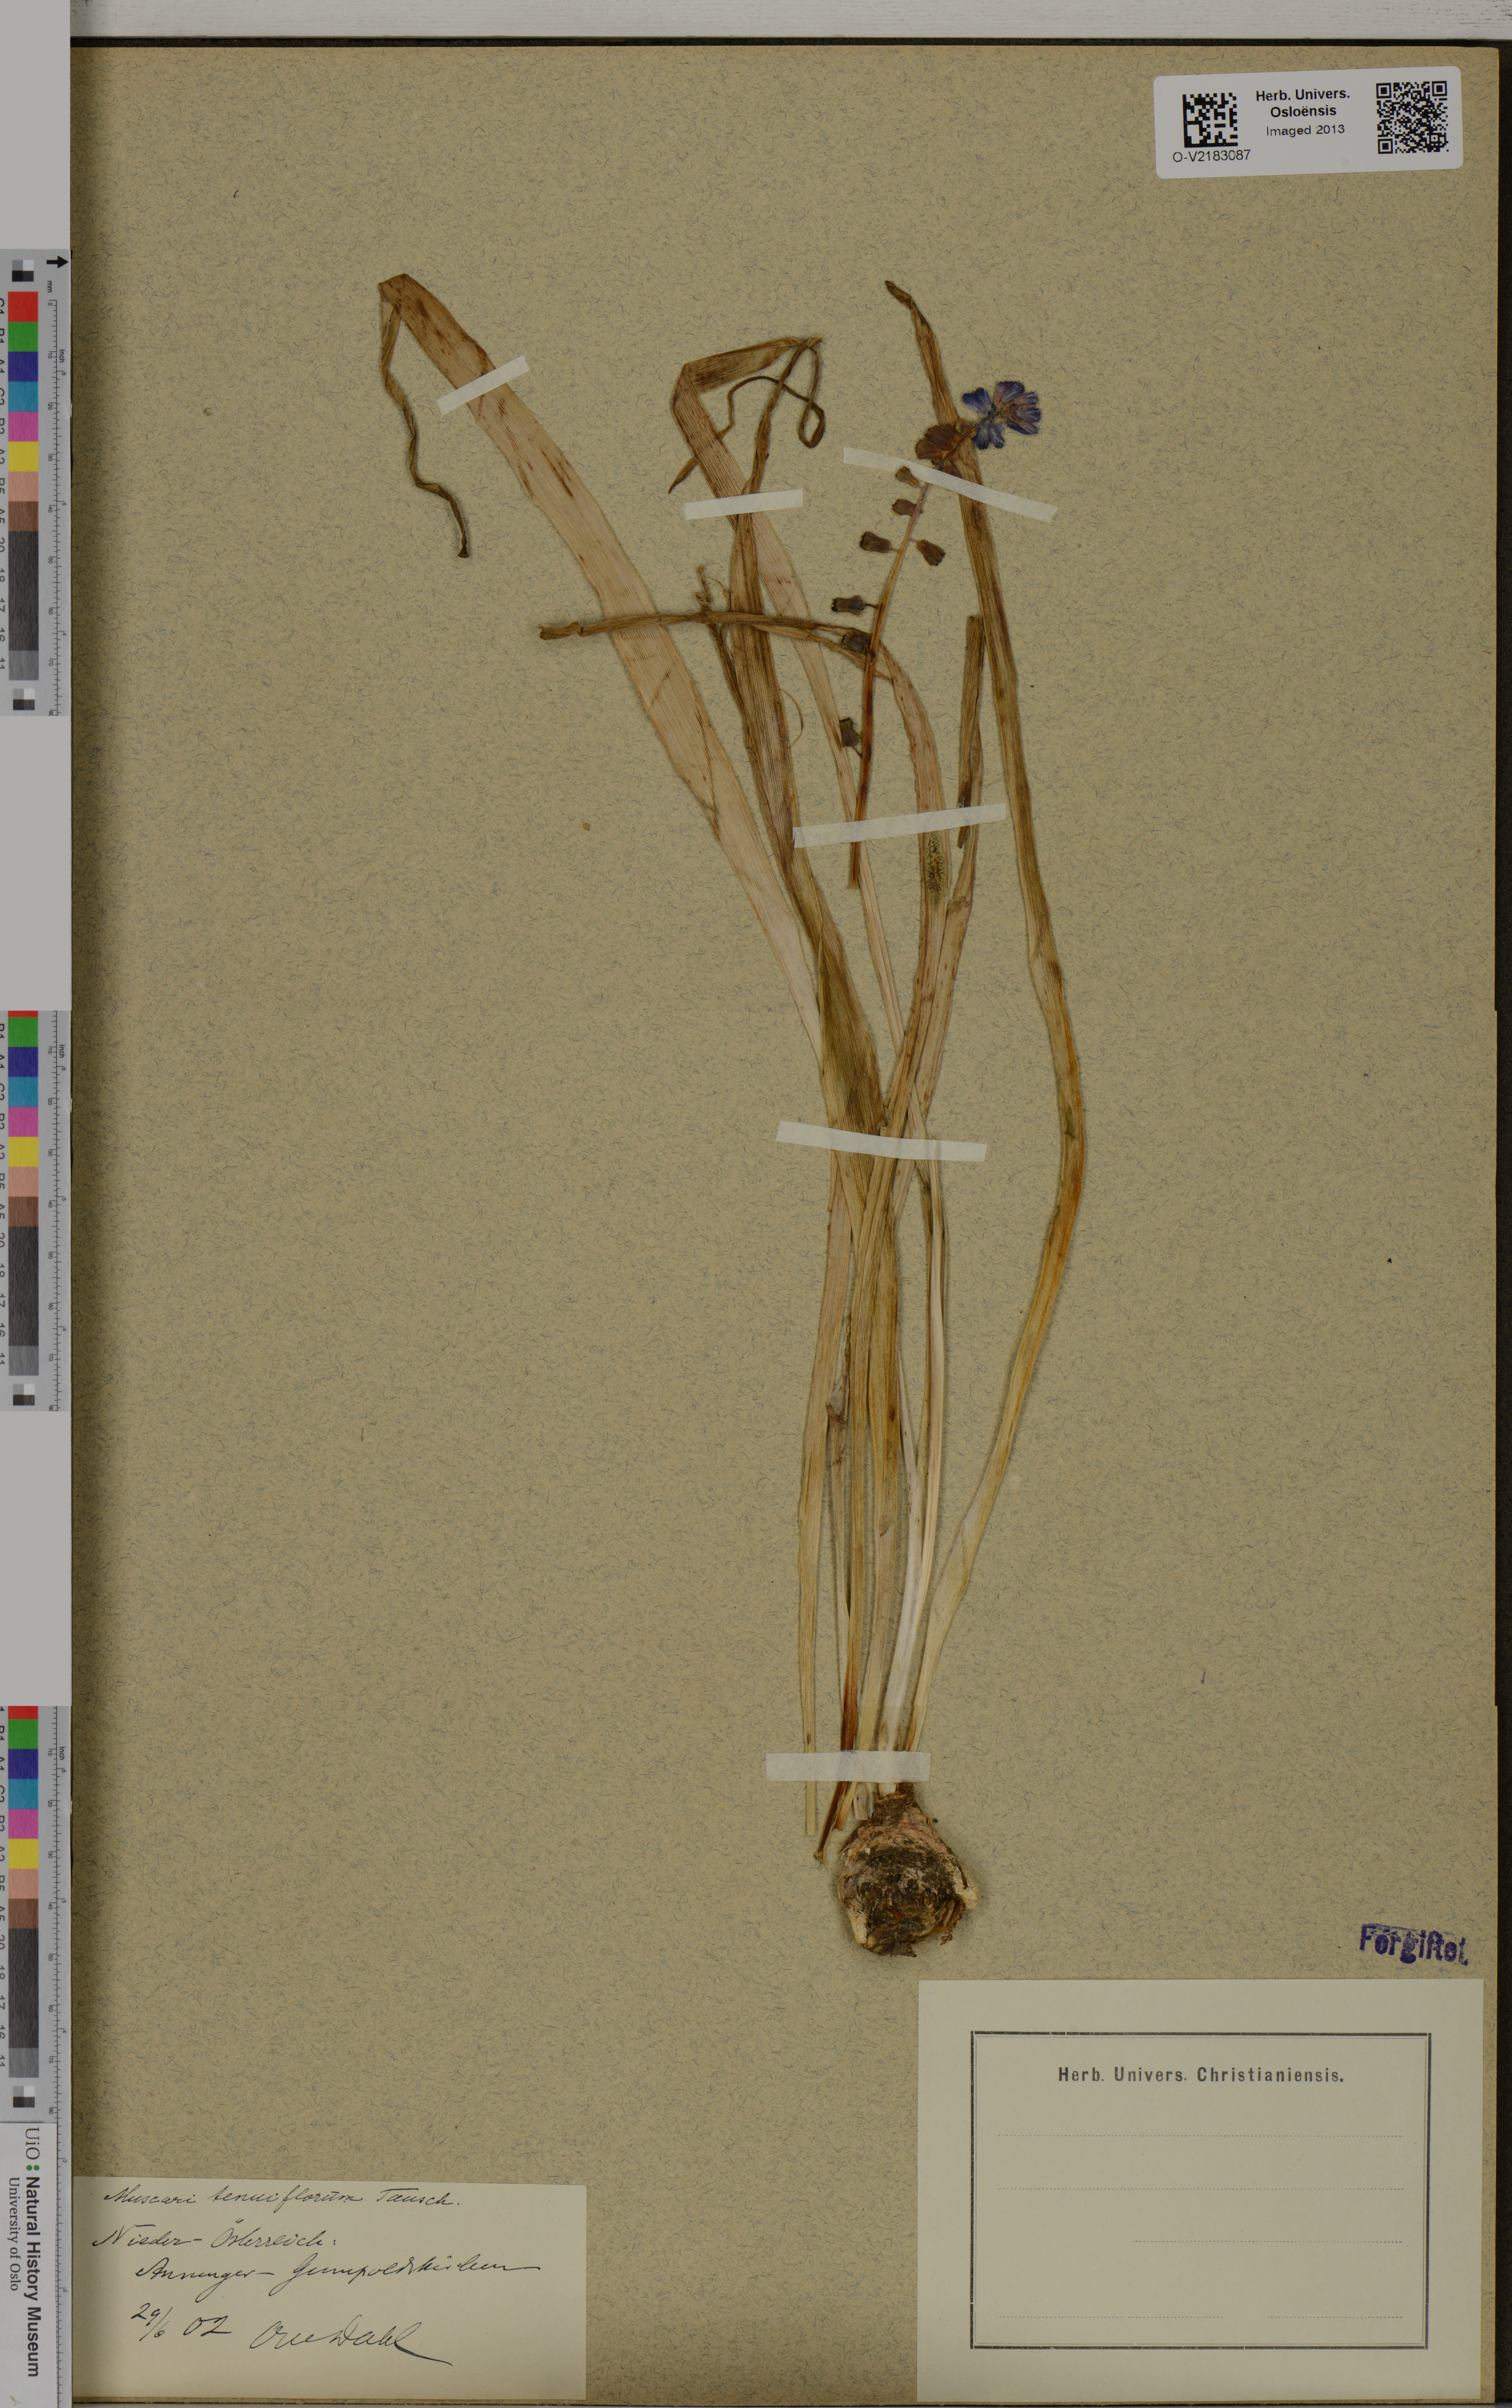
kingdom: Plantae
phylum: Tracheophyta
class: Liliopsida
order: Asparagales
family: Asparagaceae
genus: Muscari
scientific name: Muscari tenuiflorum
